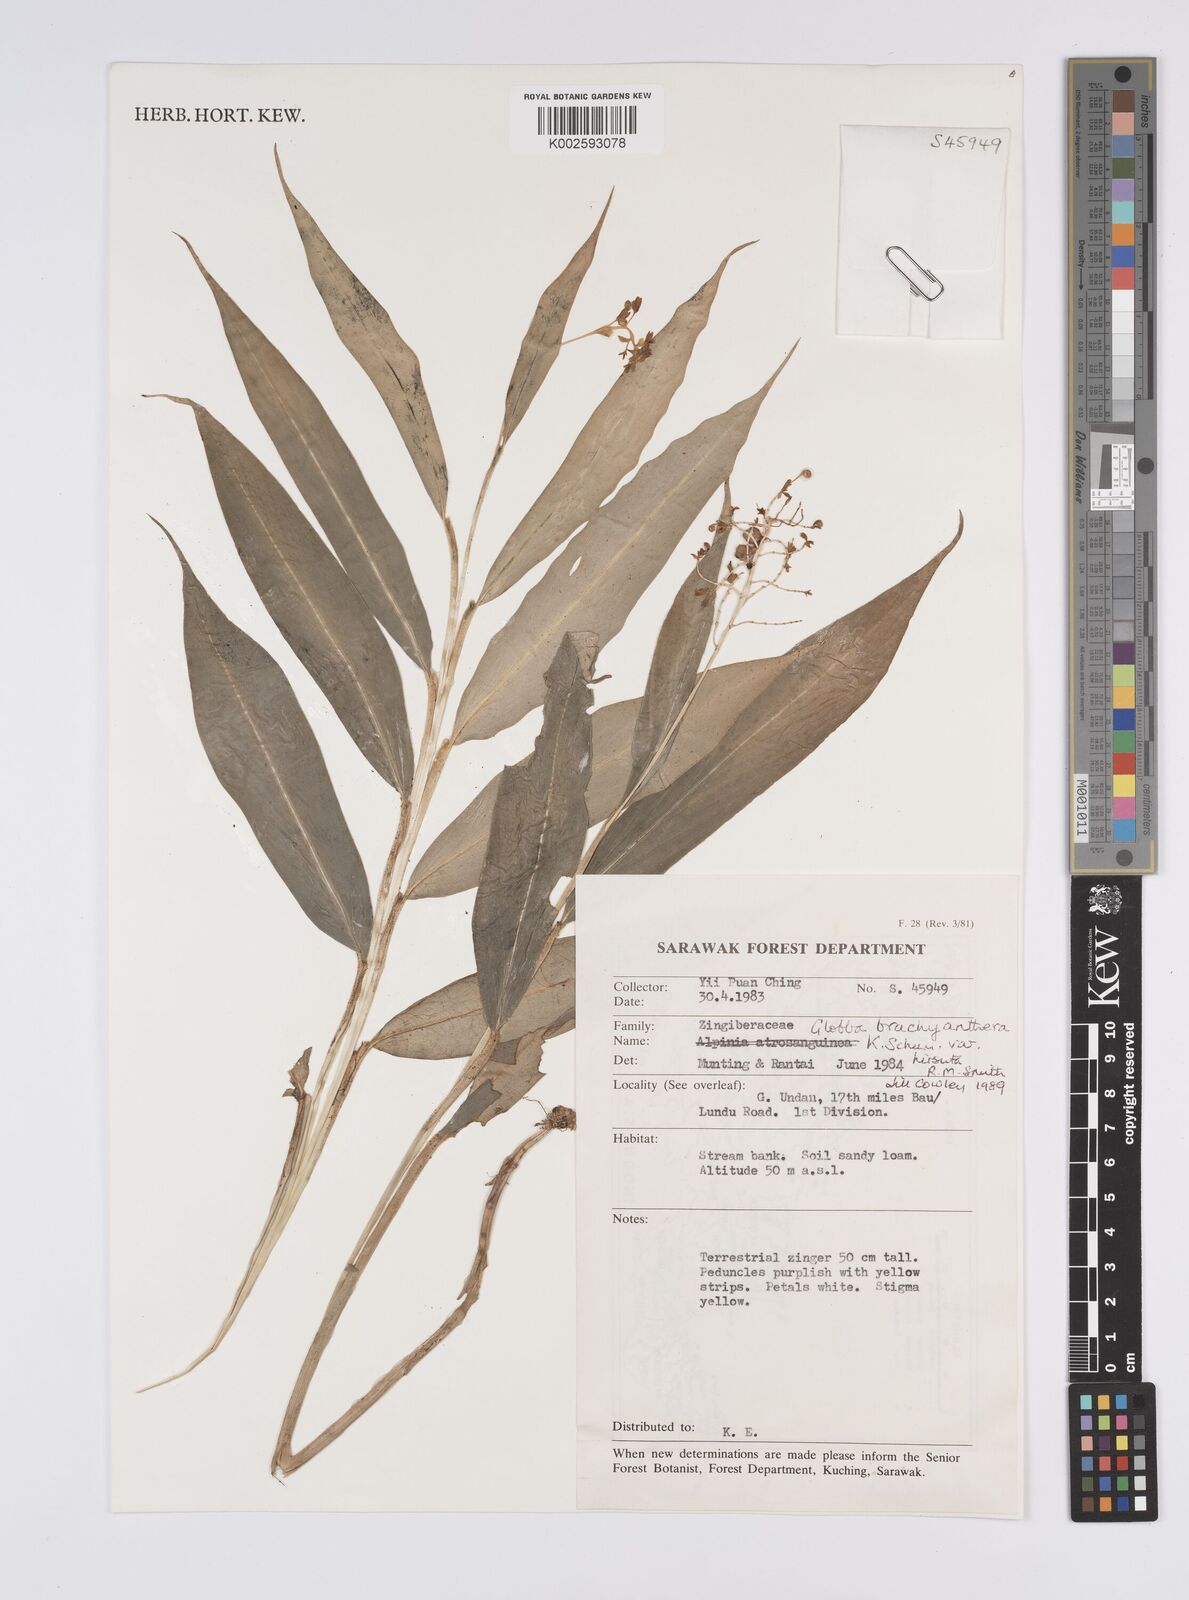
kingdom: Plantae
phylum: Tracheophyta
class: Liliopsida
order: Zingiberales
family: Zingiberaceae
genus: Globba
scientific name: Globba brachyanthera
